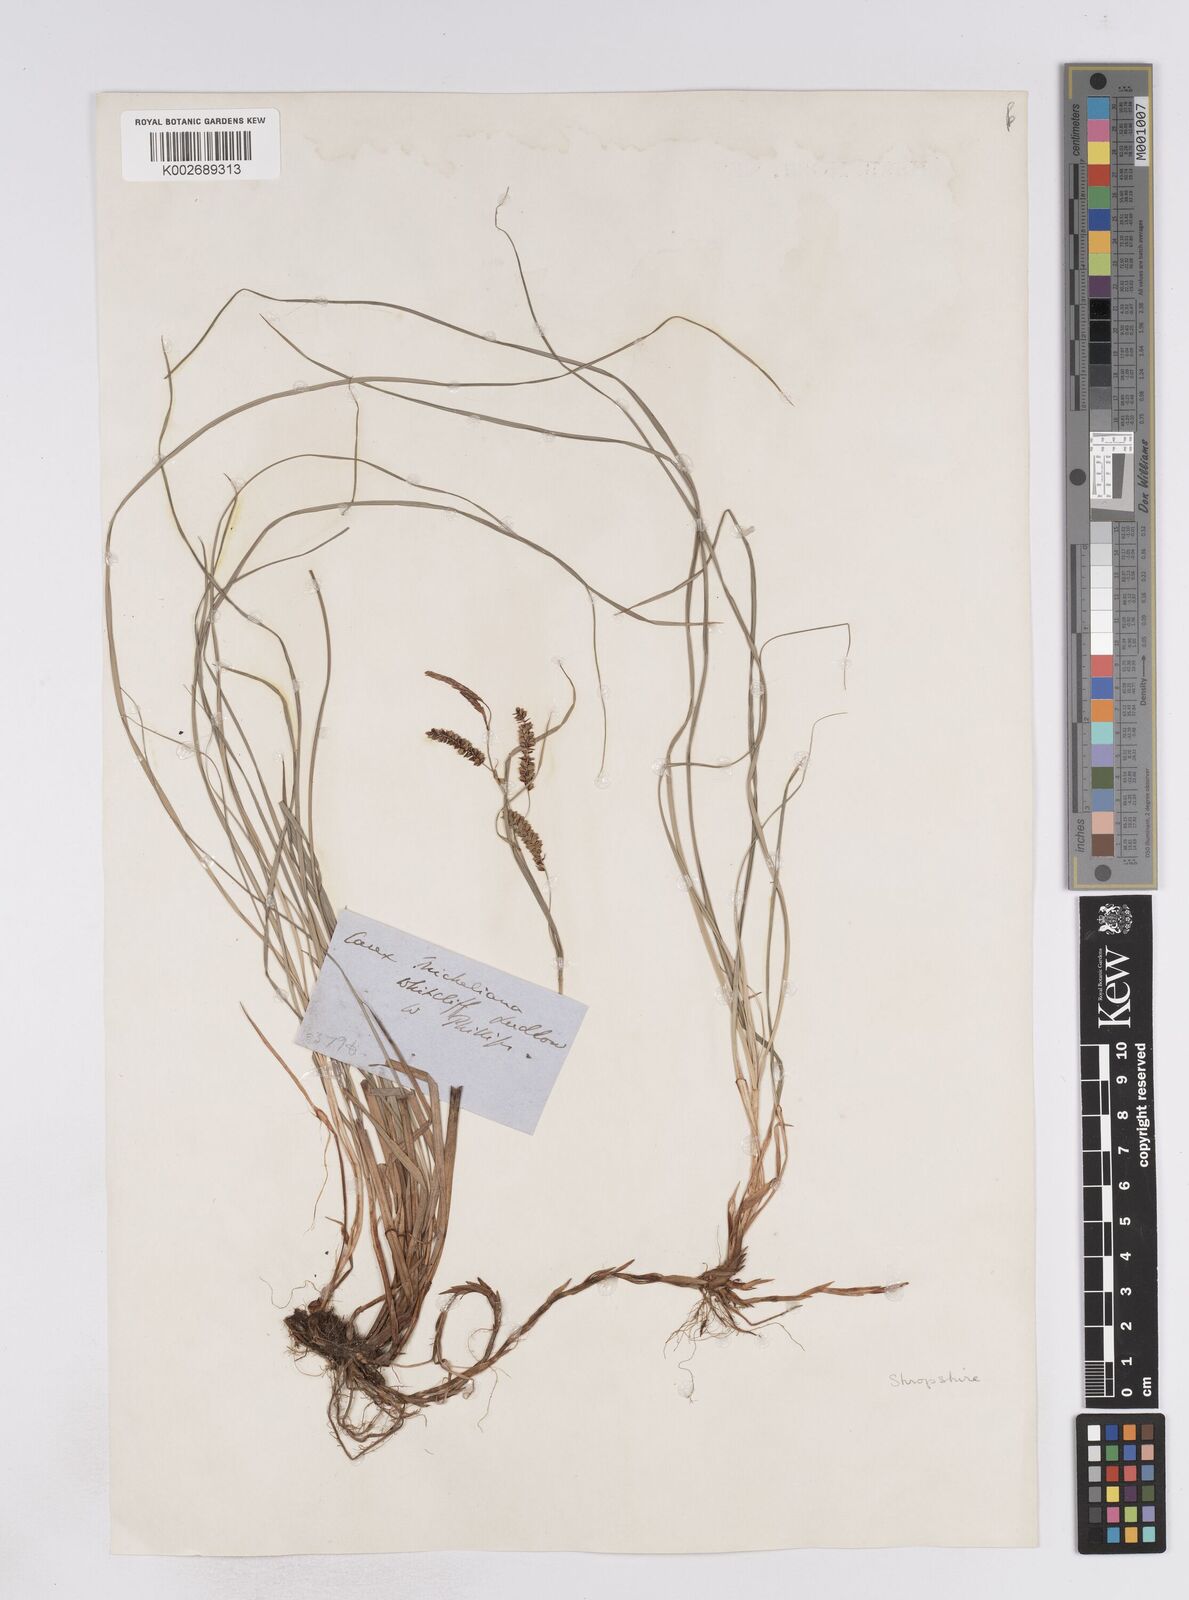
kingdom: Plantae
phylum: Tracheophyta
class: Liliopsida
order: Poales
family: Cyperaceae
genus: Carex
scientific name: Carex flacca
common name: Glaucous sedge
